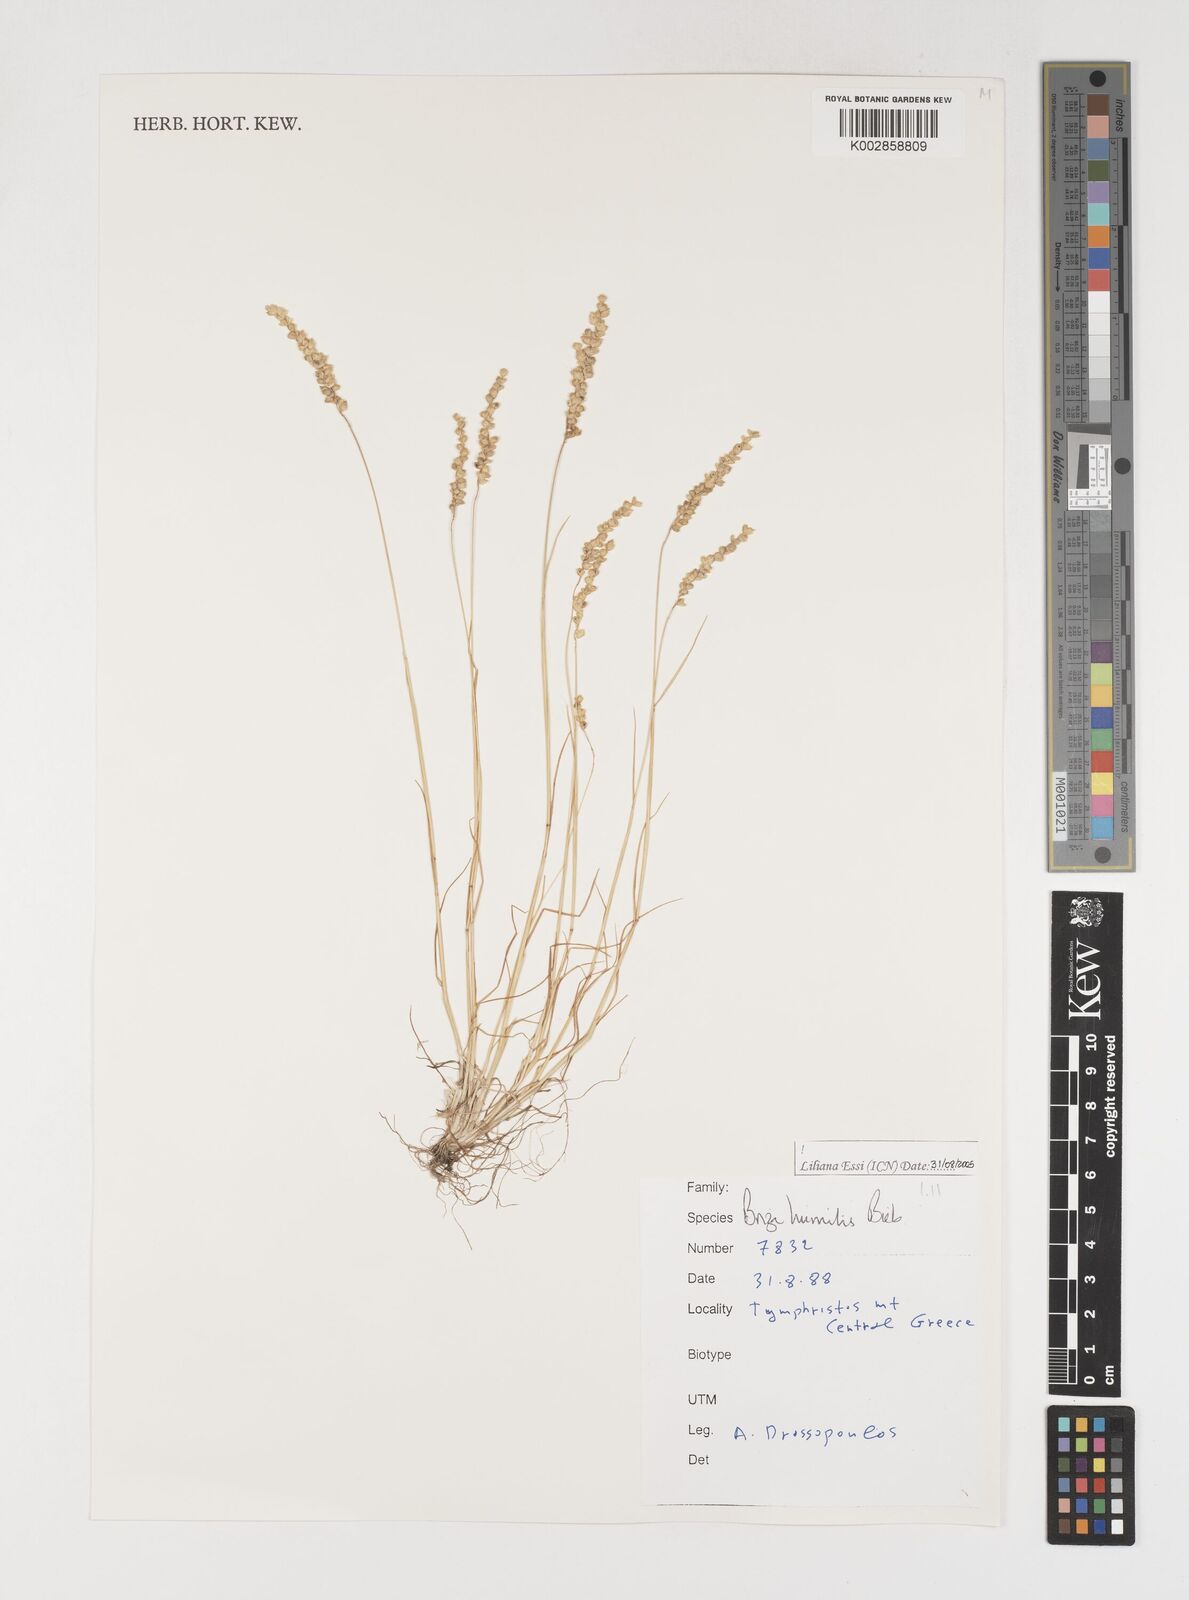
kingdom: Plantae
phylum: Tracheophyta
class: Liliopsida
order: Poales
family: Poaceae
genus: Briza
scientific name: Briza humilis
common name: Spiked quaking grass
